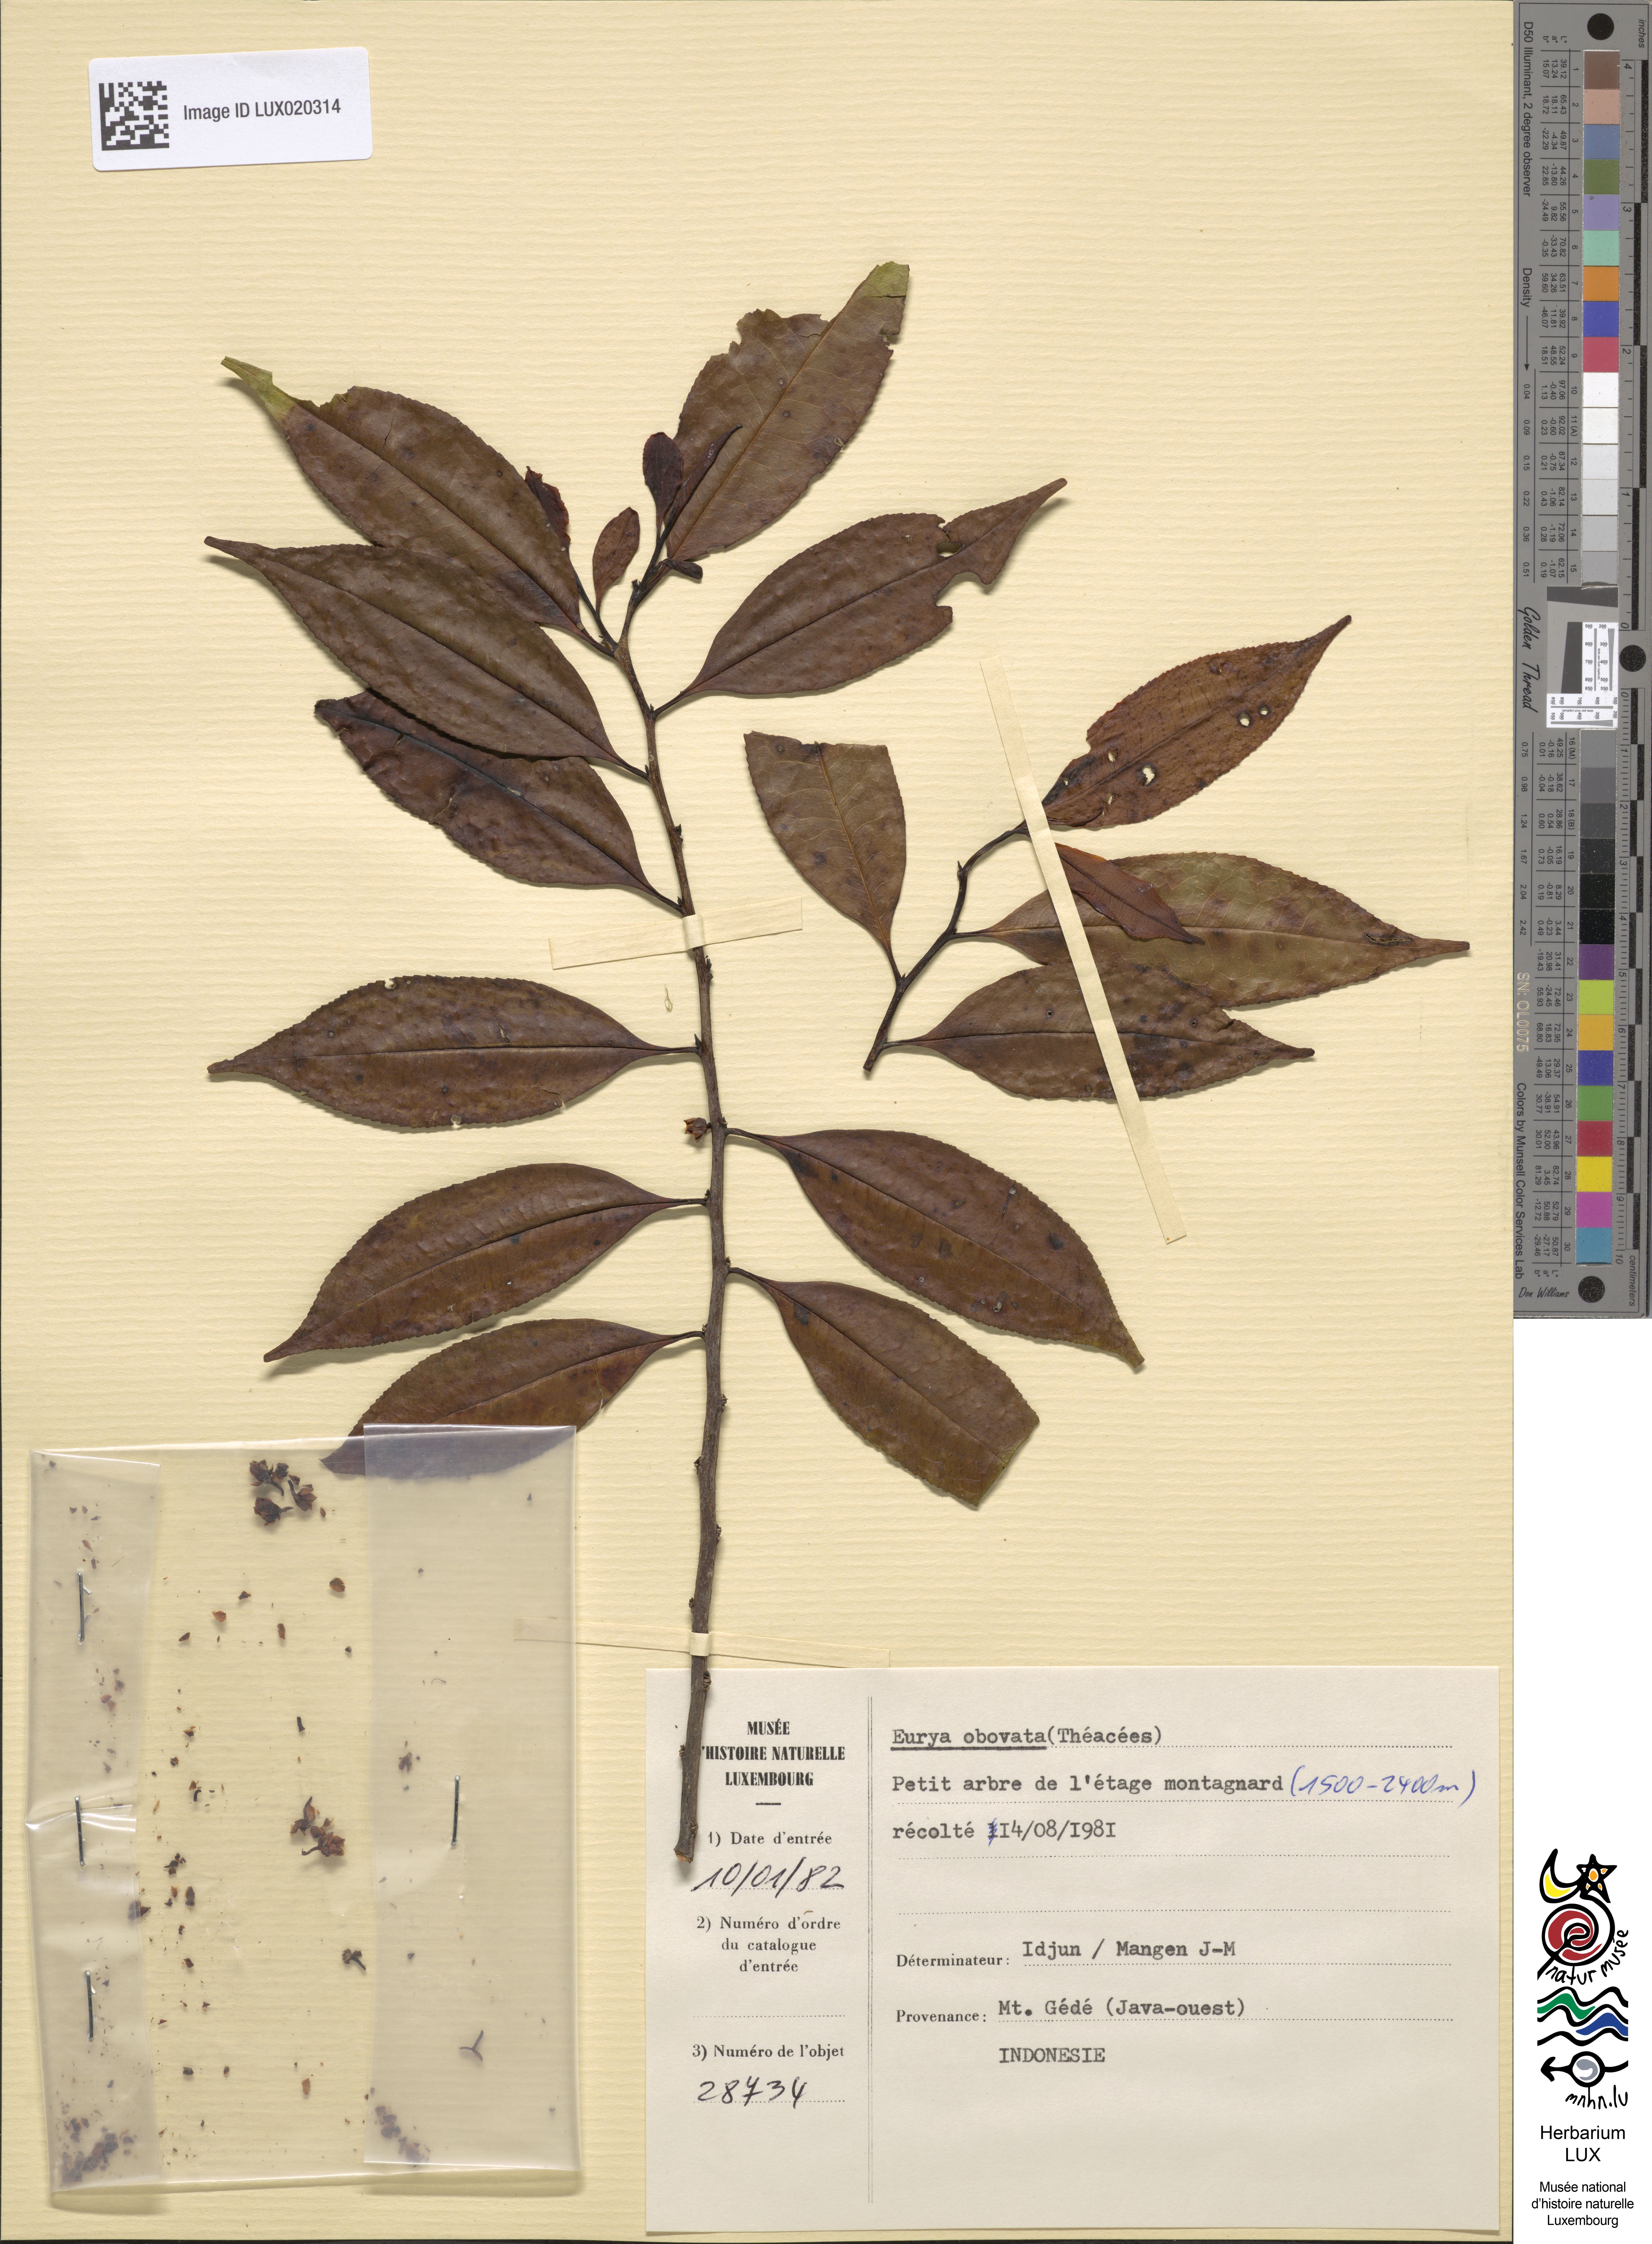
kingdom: Plantae
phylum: Tracheophyta
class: Magnoliopsida
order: Ericales
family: Pentaphylacaceae
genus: Eurya
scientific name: Eurya obovata
